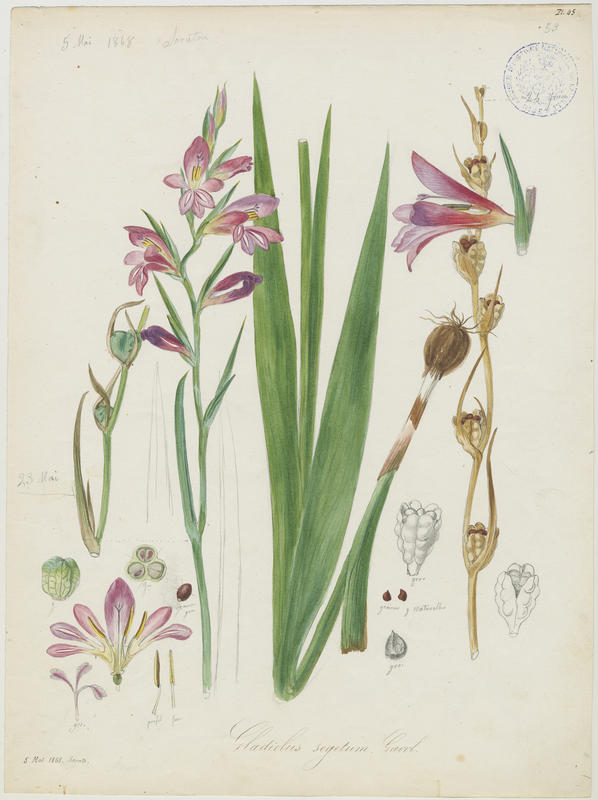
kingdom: Plantae
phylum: Tracheophyta
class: Liliopsida
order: Asparagales
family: Iridaceae
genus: Gladiolus
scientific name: Gladiolus byzantinus
